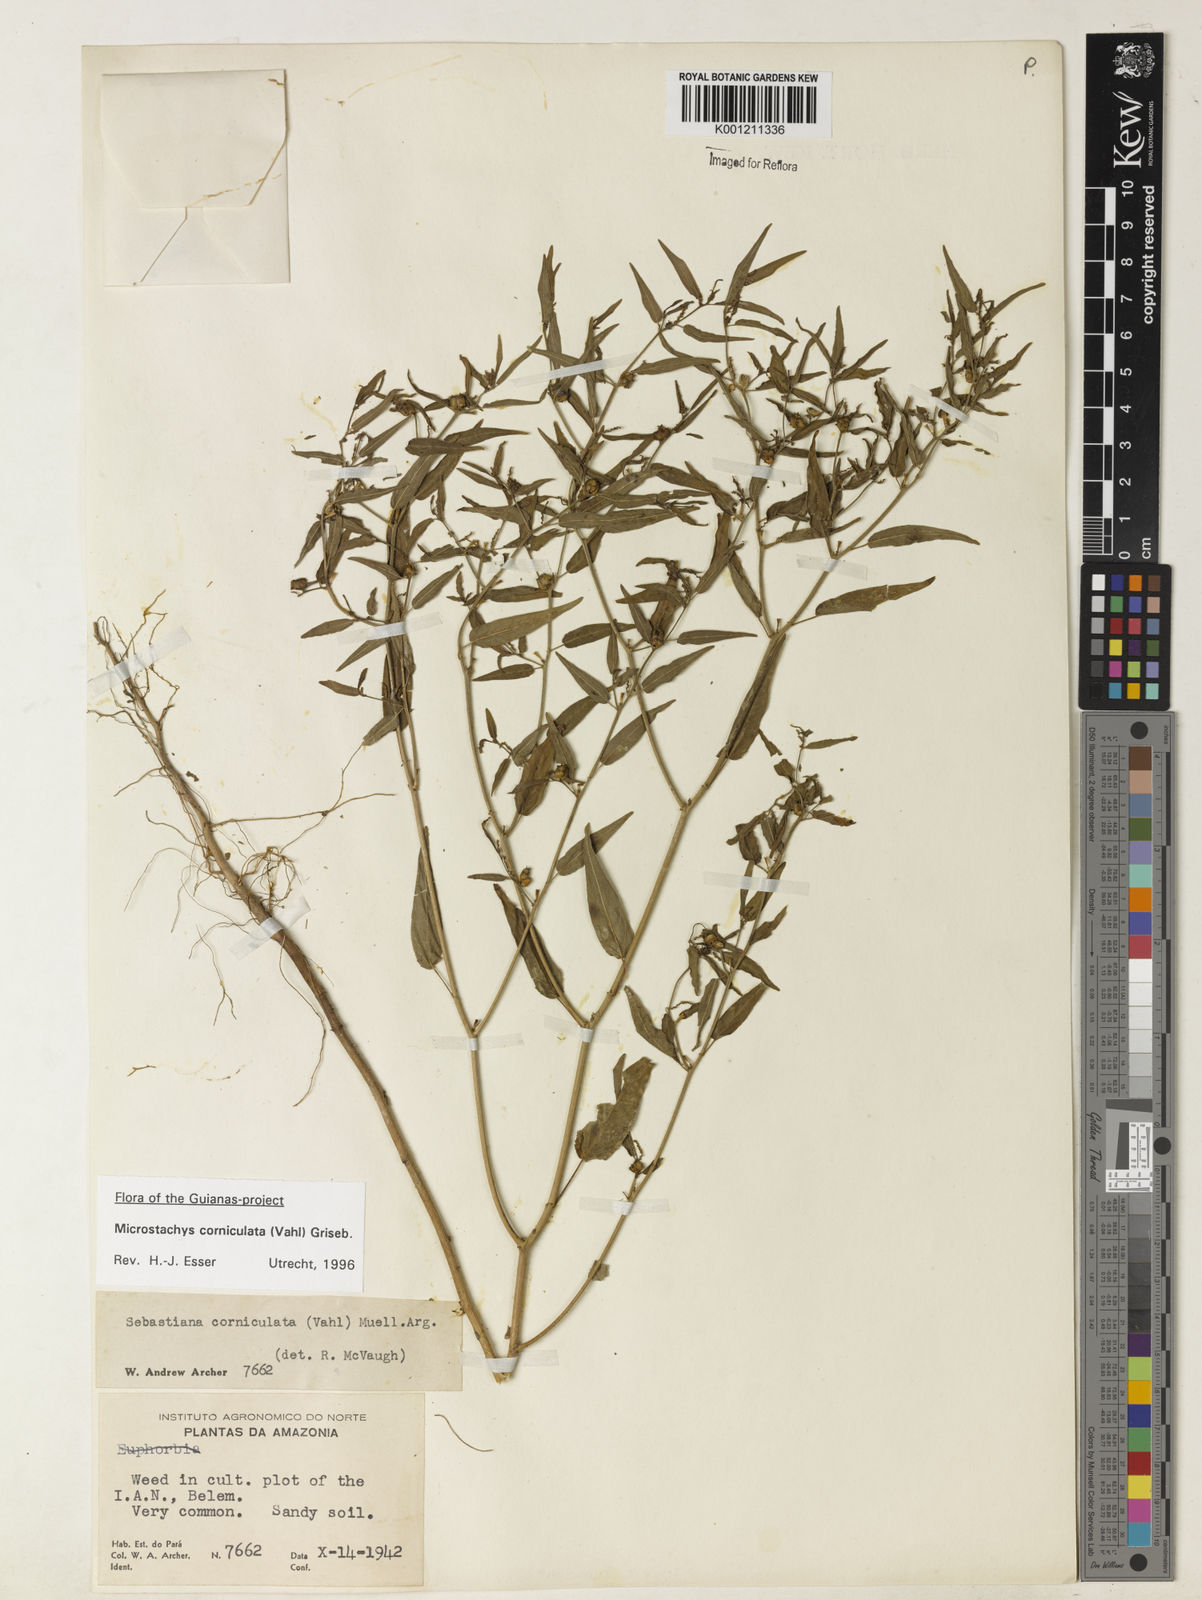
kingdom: Plantae
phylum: Tracheophyta
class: Magnoliopsida
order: Malpighiales
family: Euphorbiaceae
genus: Microstachys
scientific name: Microstachys corniculata
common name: Hato tejas
